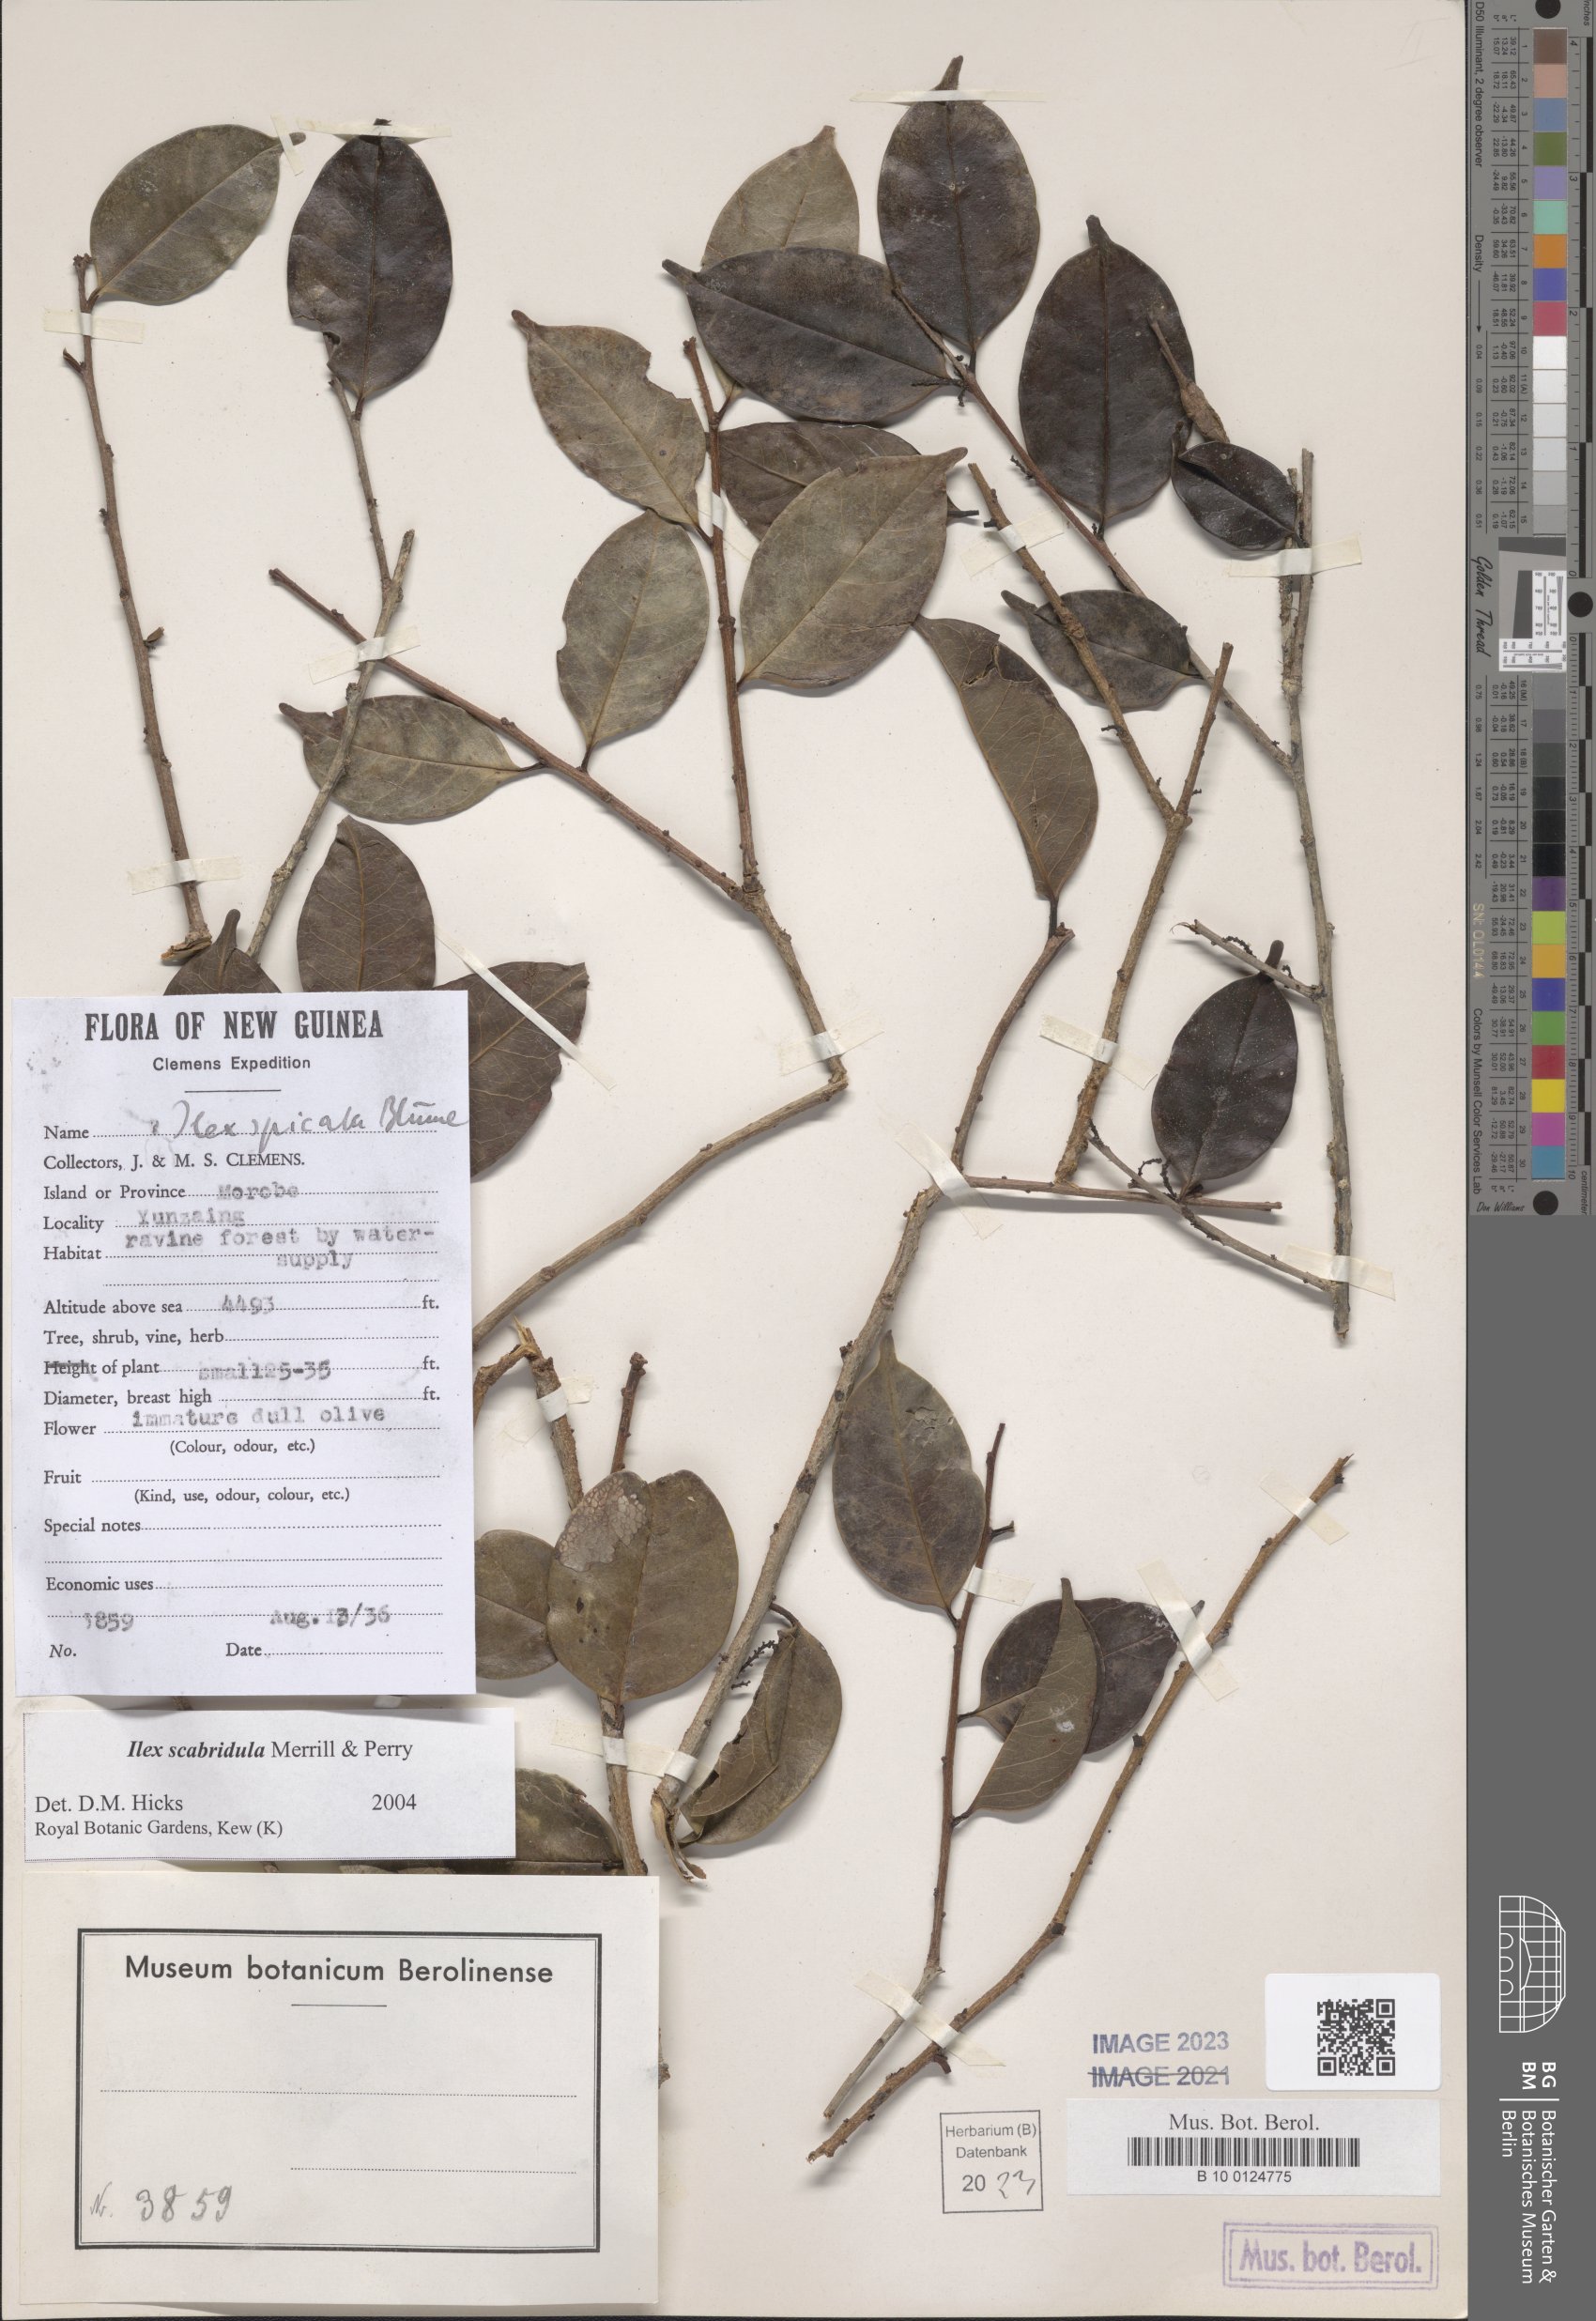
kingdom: Plantae
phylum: Tracheophyta
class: Magnoliopsida
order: Aquifoliales
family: Aquifoliaceae
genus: Ilex
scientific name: Ilex scabridula
